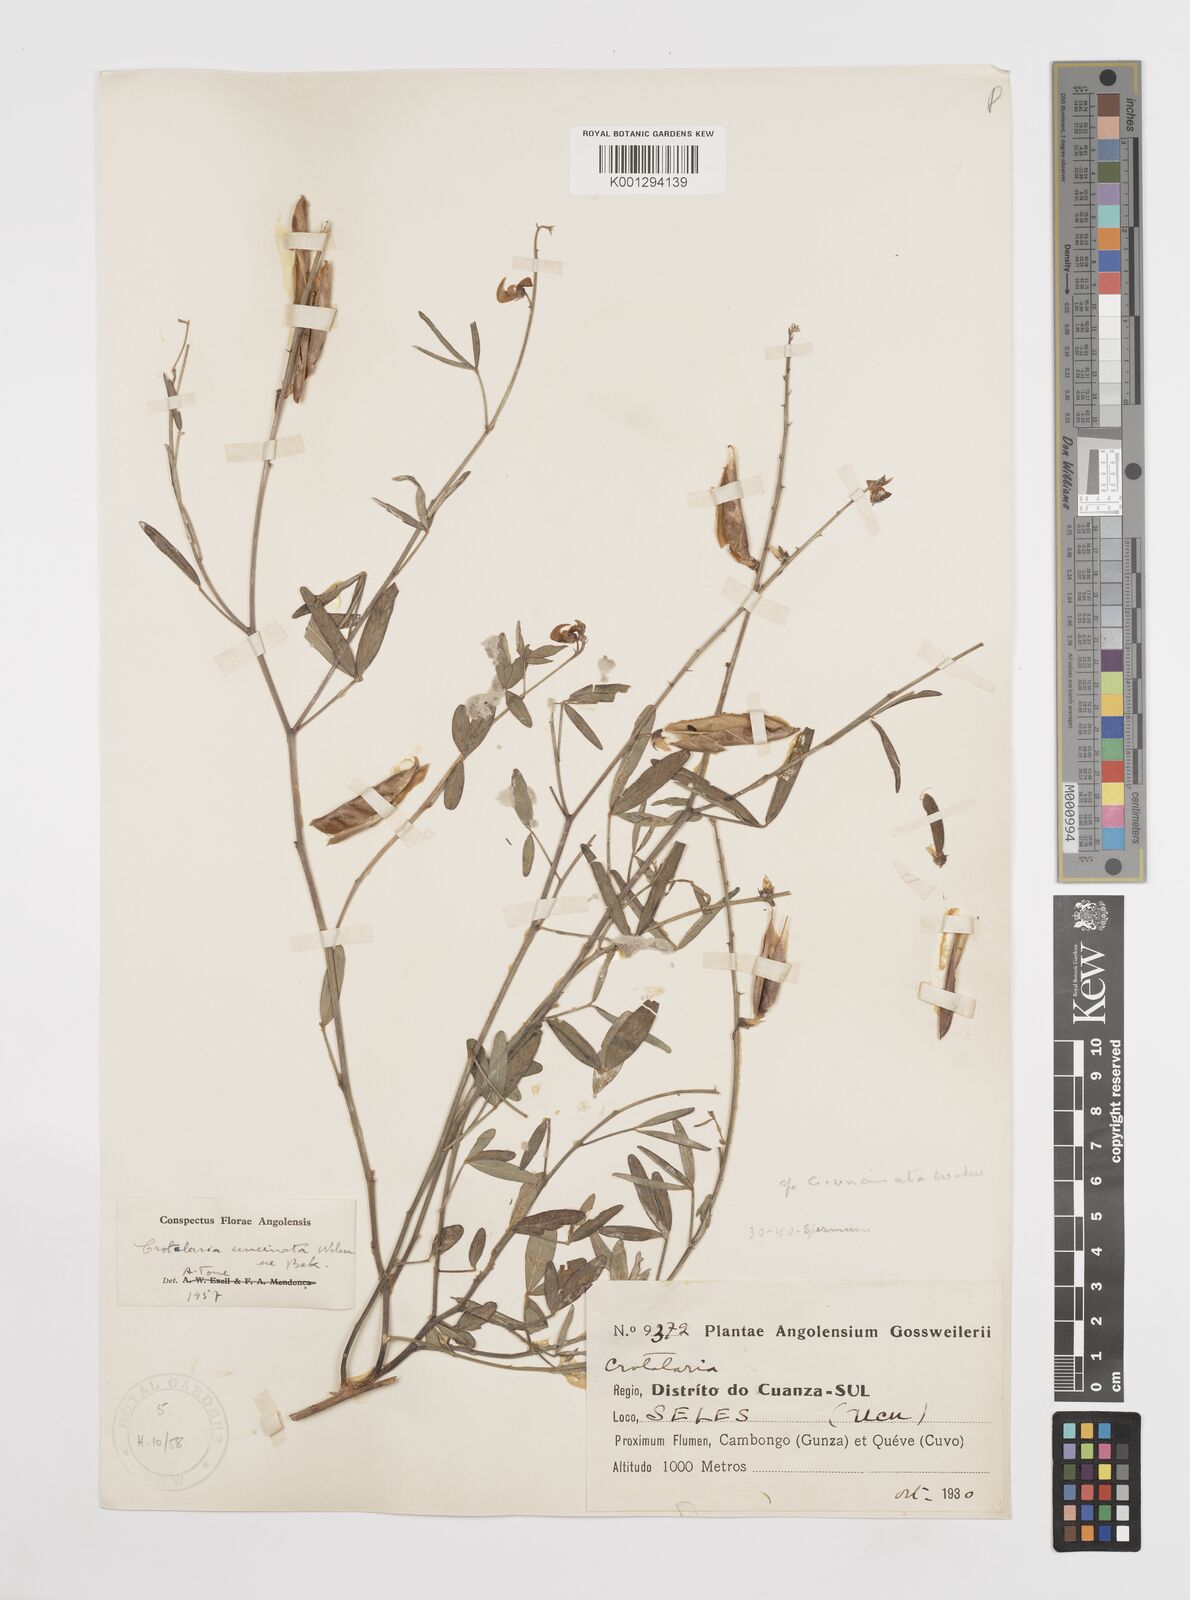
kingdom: Plantae
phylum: Tracheophyta
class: Magnoliopsida
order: Fabales
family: Fabaceae
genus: Crotalaria
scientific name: Crotalaria uncinata
